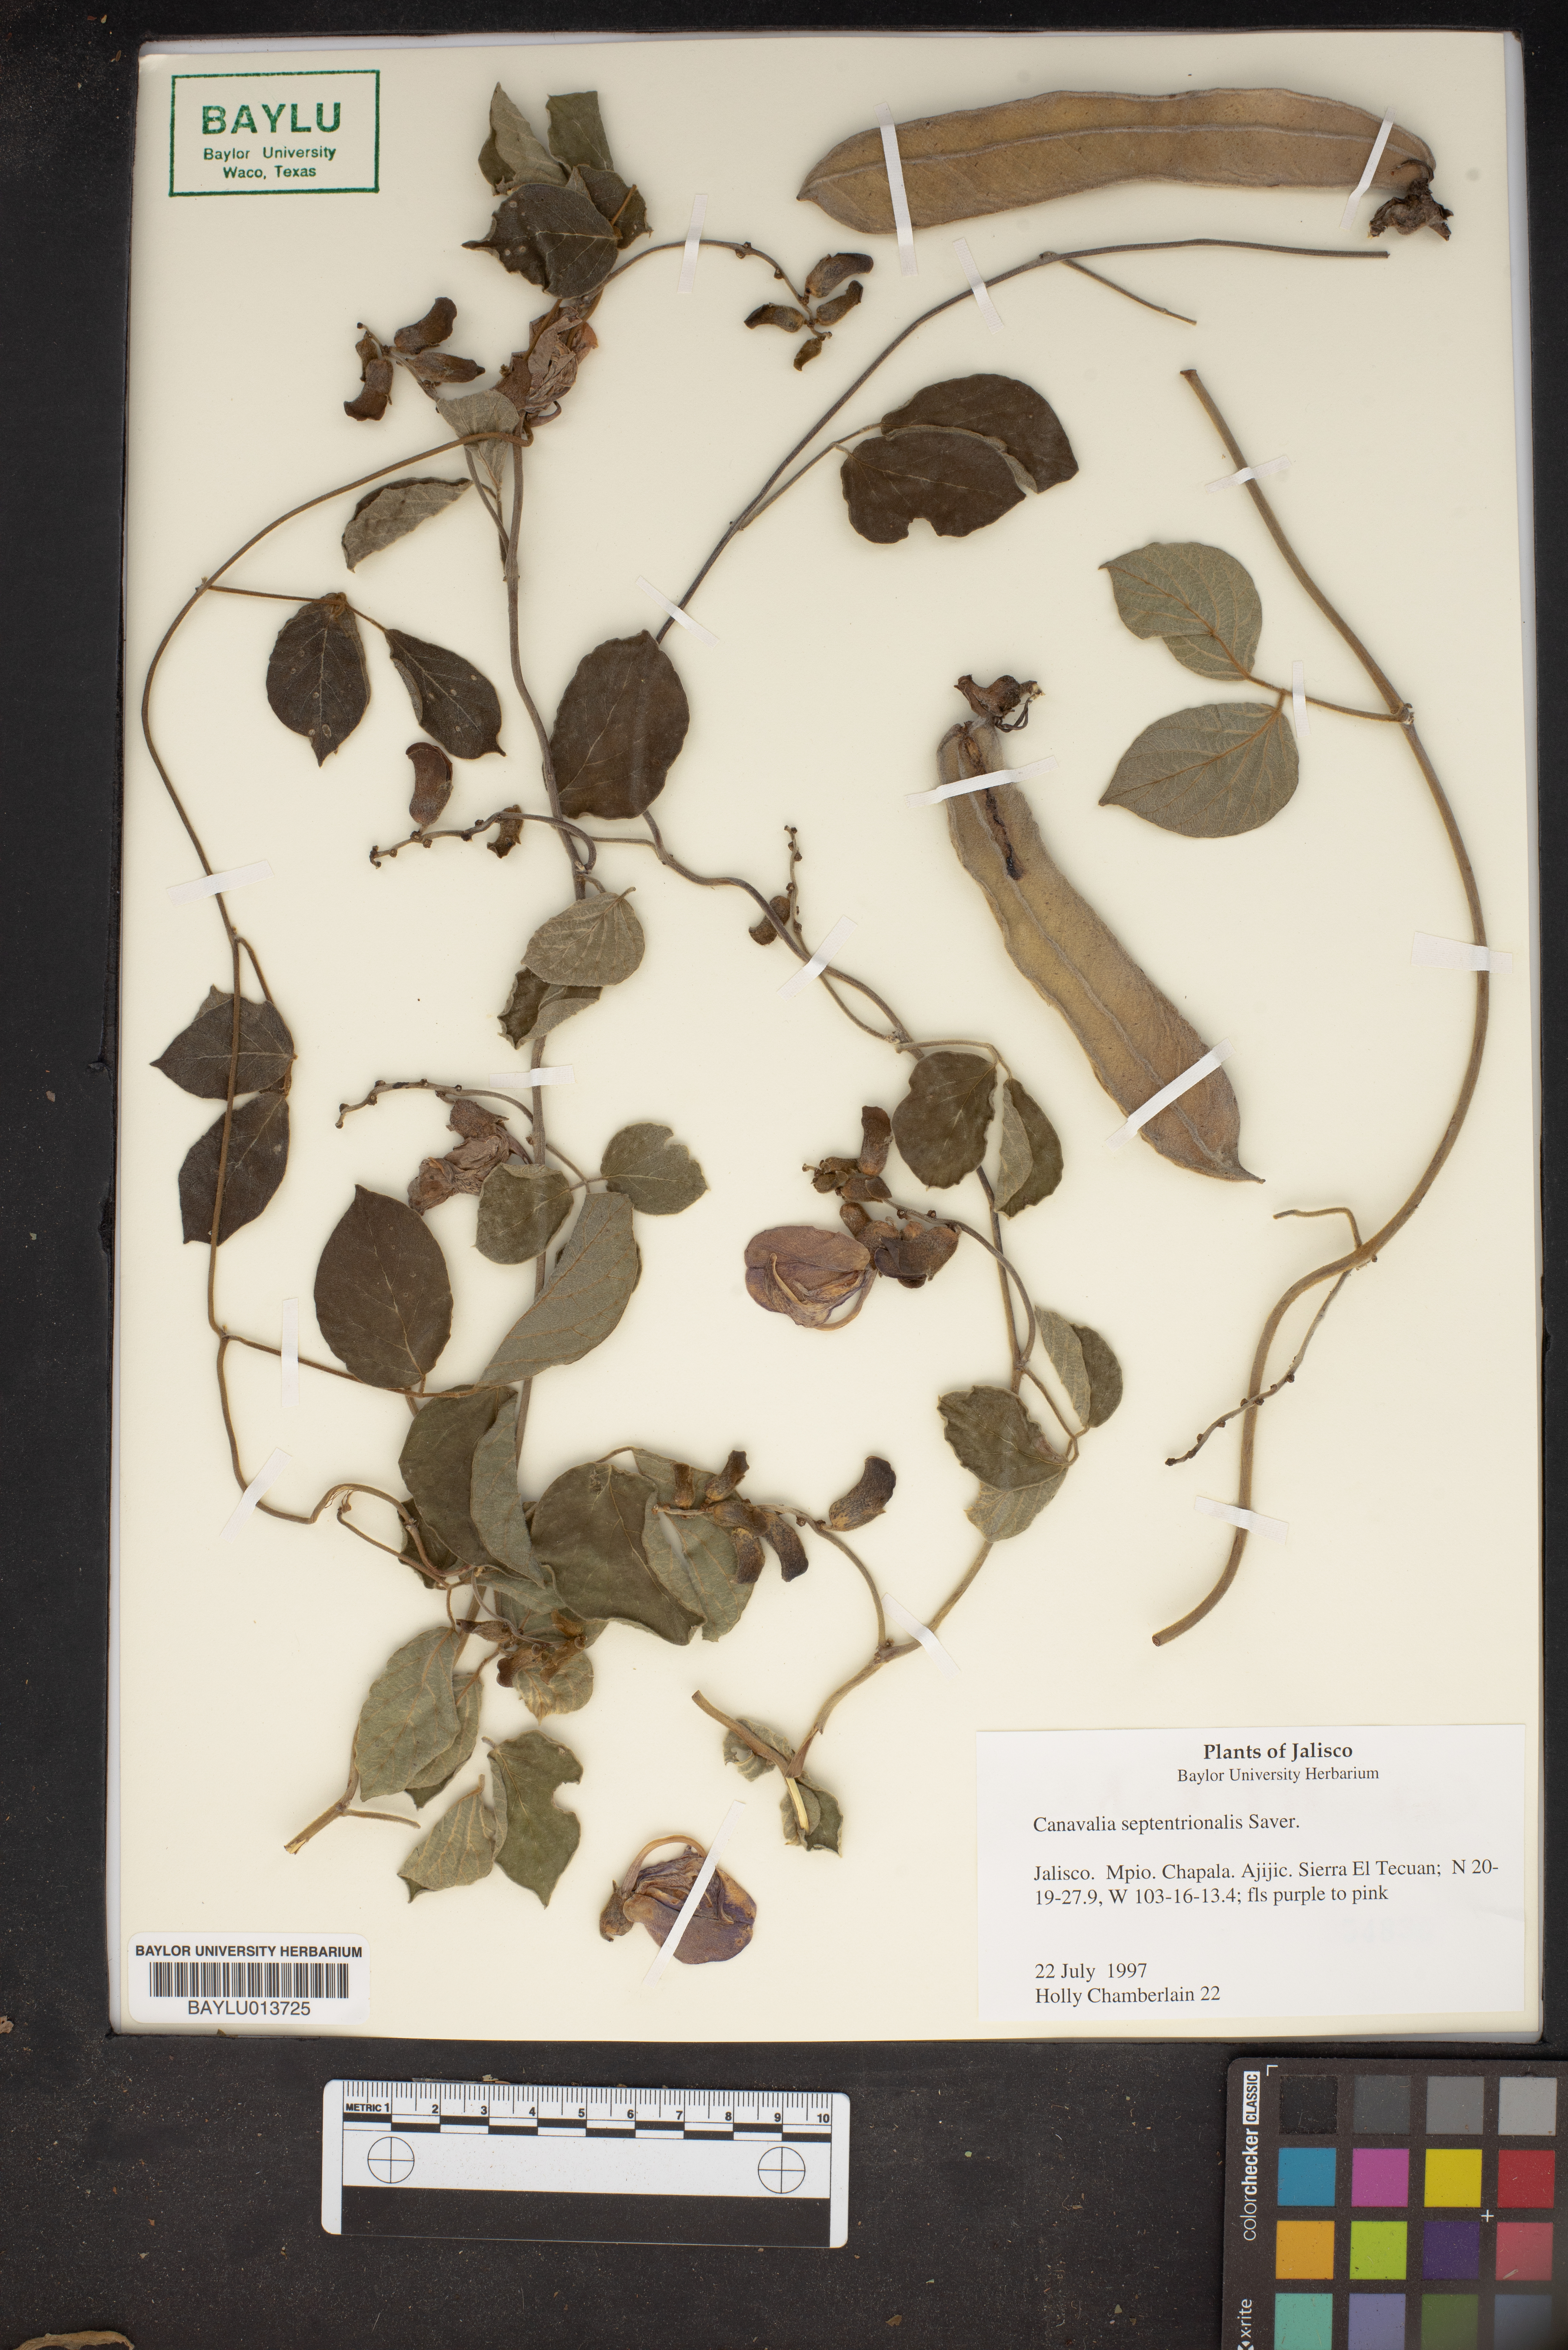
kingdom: Plantae
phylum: Tracheophyta
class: Magnoliopsida
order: Fabales
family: Fabaceae
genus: Canavalia
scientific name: Canavalia septentrionalis
